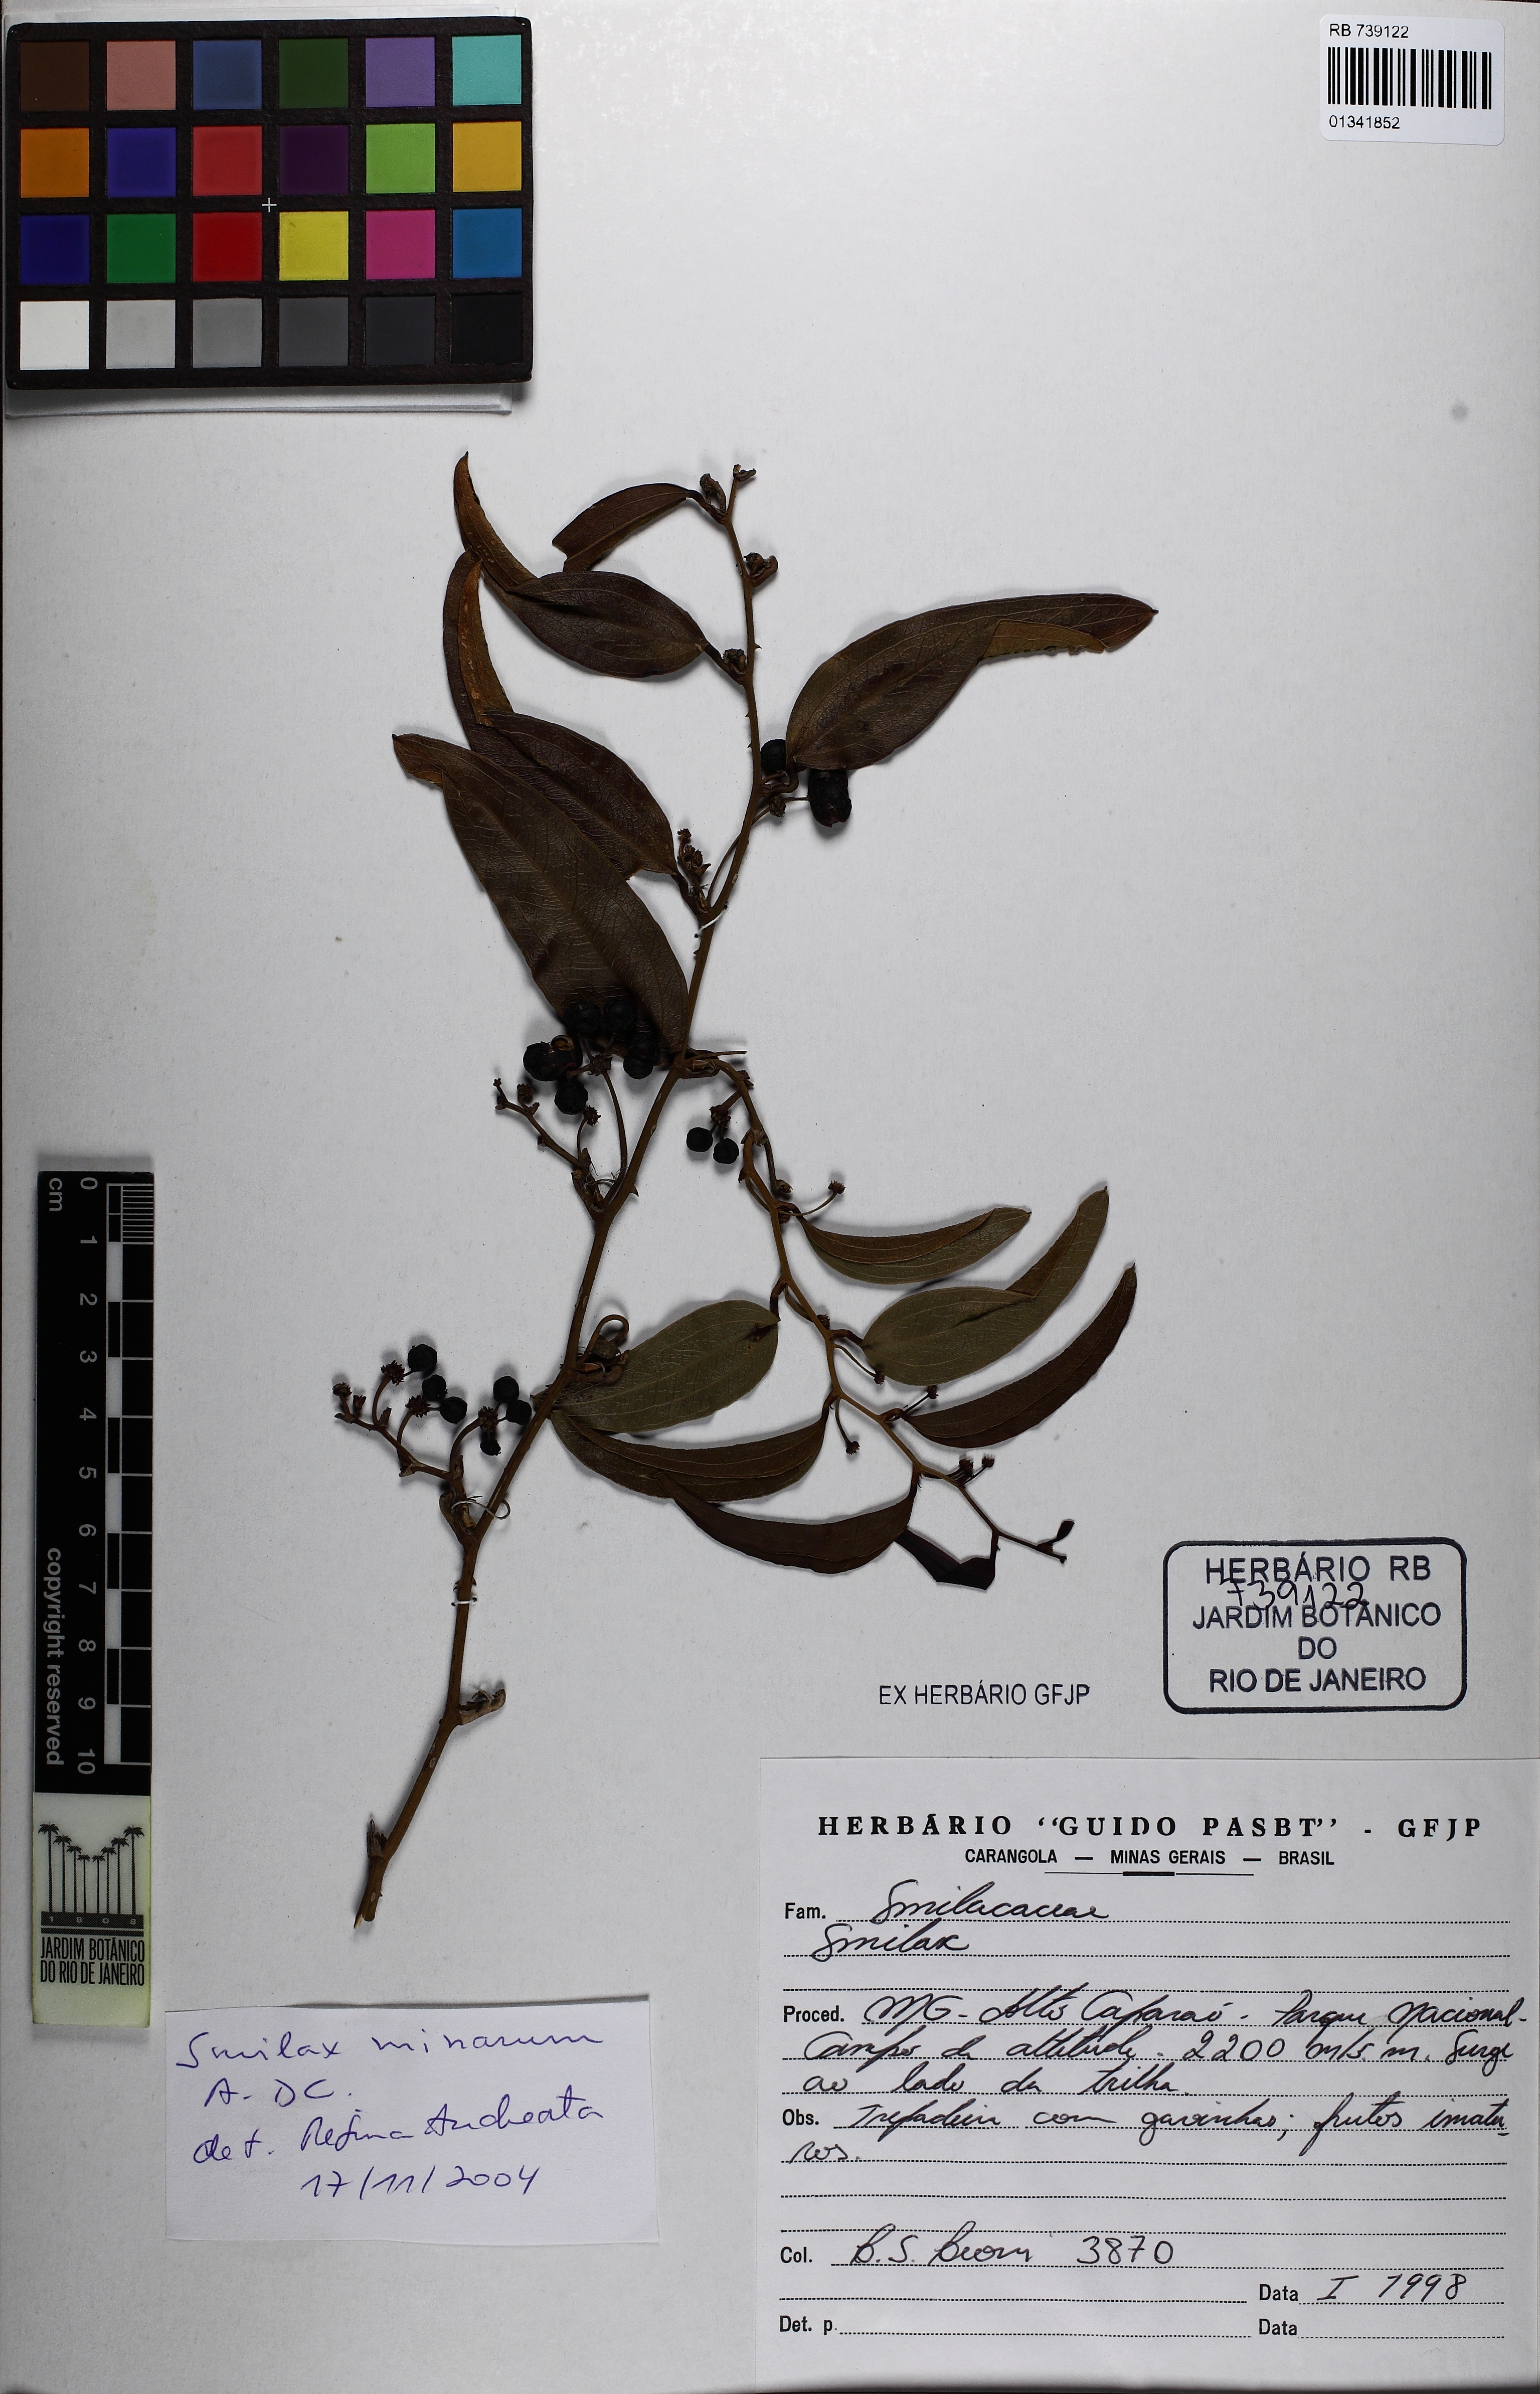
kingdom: Plantae
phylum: Tracheophyta
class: Liliopsida
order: Liliales
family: Smilacaceae
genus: Smilax
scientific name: Smilax minarum
